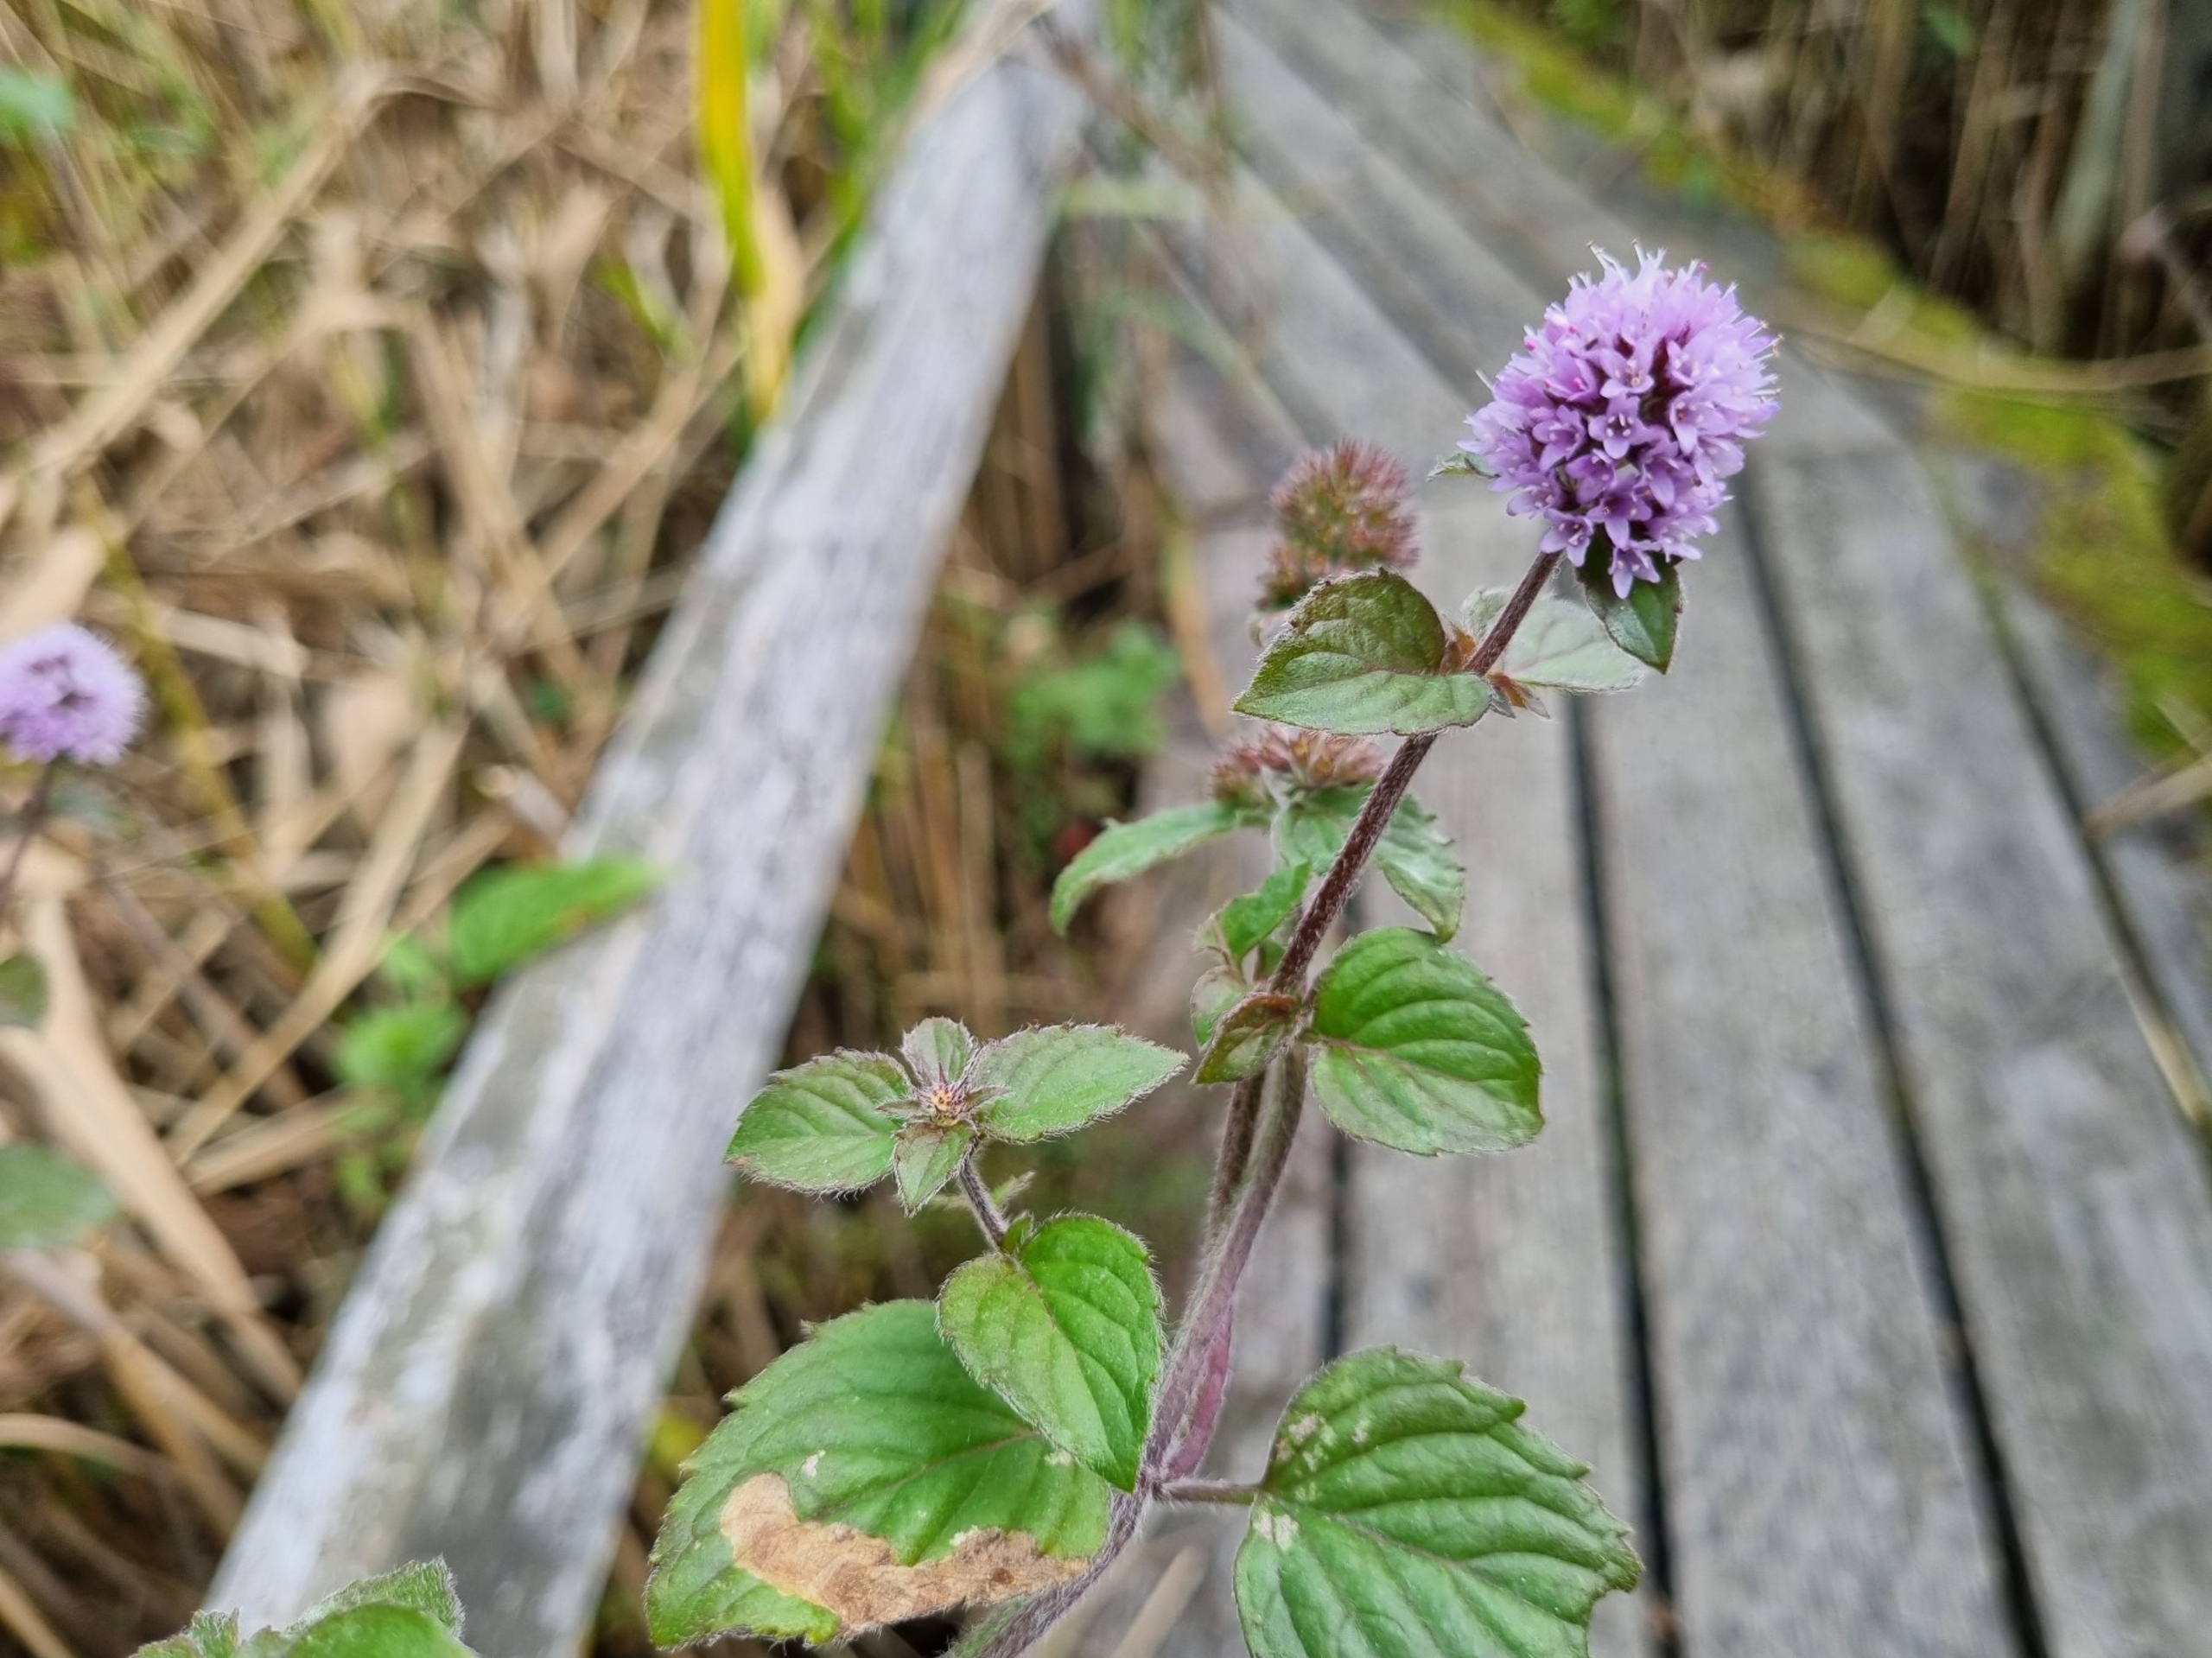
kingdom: Plantae
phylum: Tracheophyta
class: Magnoliopsida
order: Lamiales
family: Lamiaceae
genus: Mentha
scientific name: Mentha aquatica
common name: Vand-mynte
